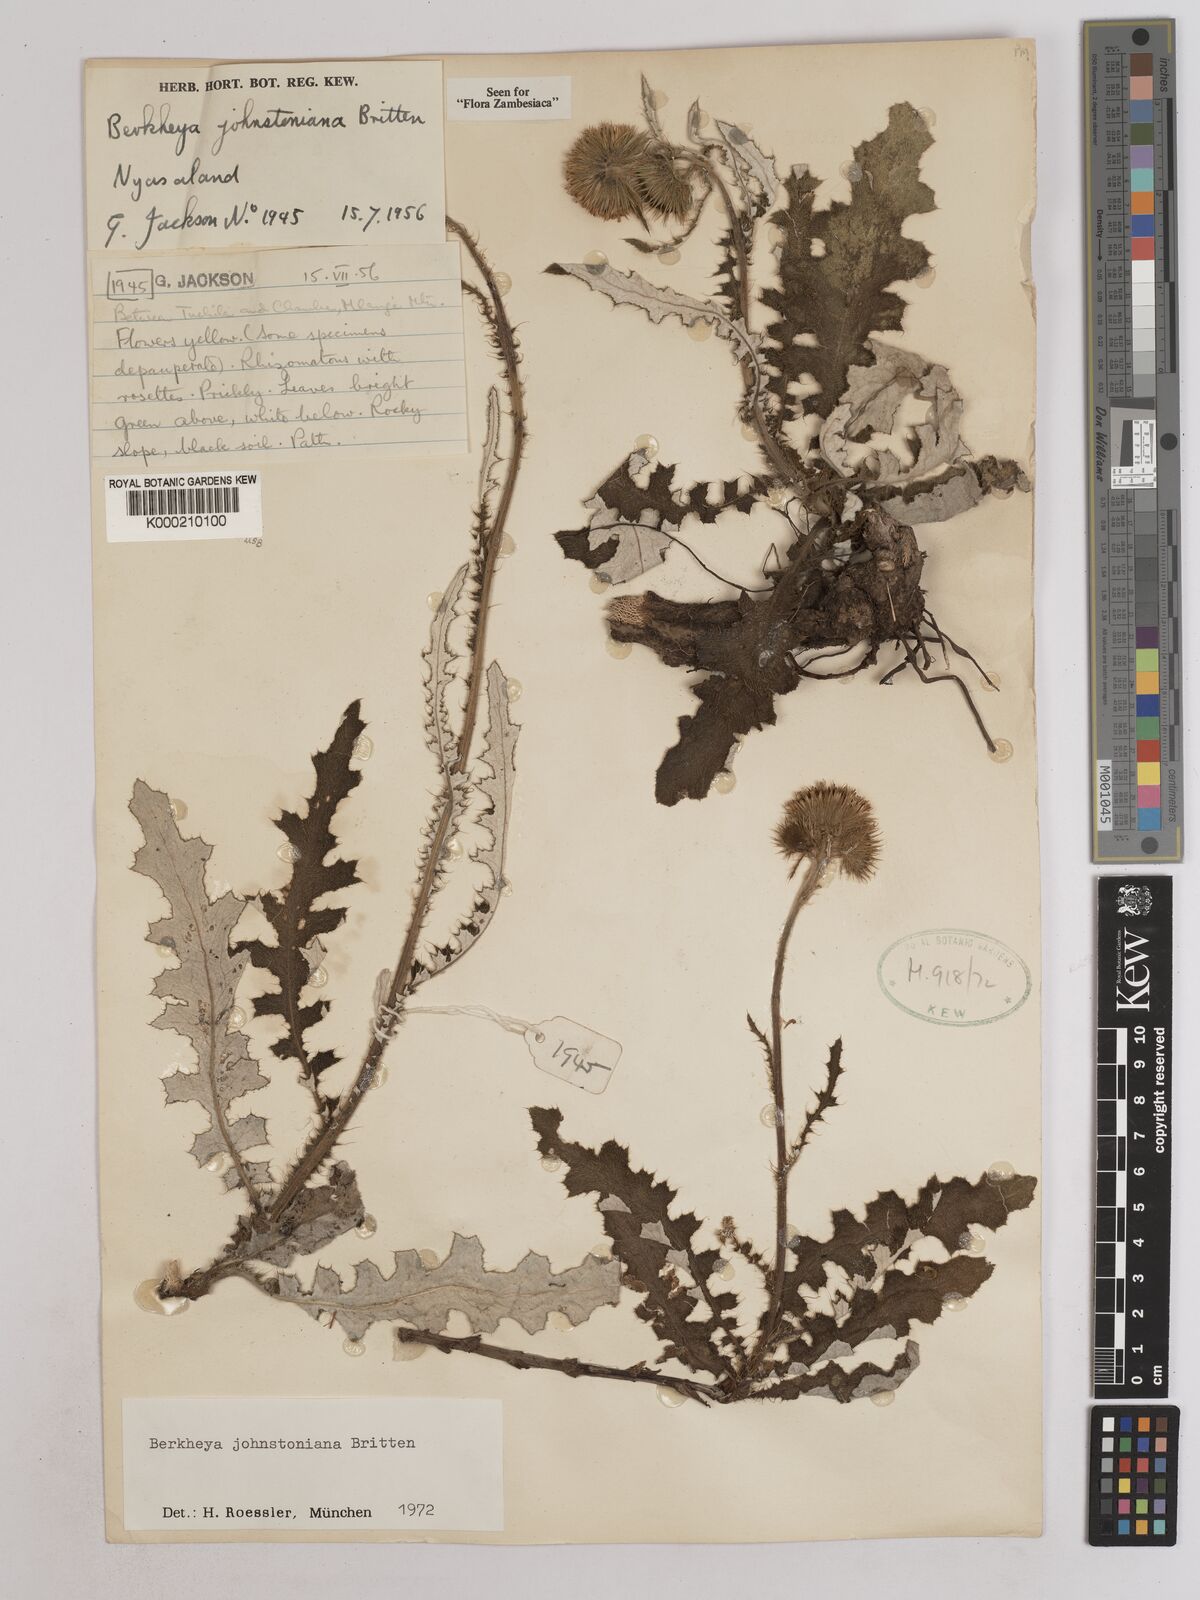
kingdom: Plantae
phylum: Tracheophyta
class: Magnoliopsida
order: Asterales
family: Asteraceae
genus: Berkheya
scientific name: Berkheya johnstoniana
